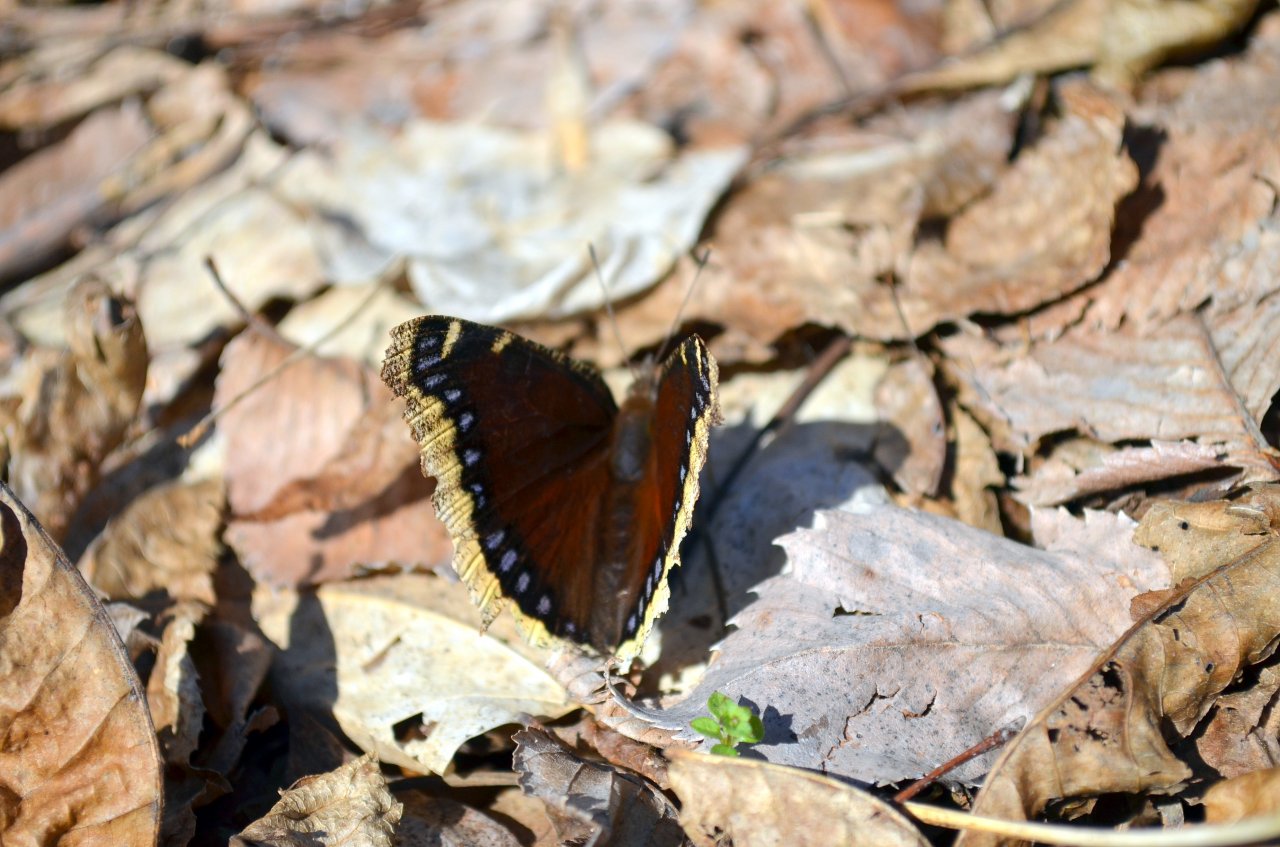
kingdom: Animalia
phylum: Arthropoda
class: Insecta
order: Lepidoptera
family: Nymphalidae
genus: Nymphalis
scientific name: Nymphalis antiopa
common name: Mourning Cloak
